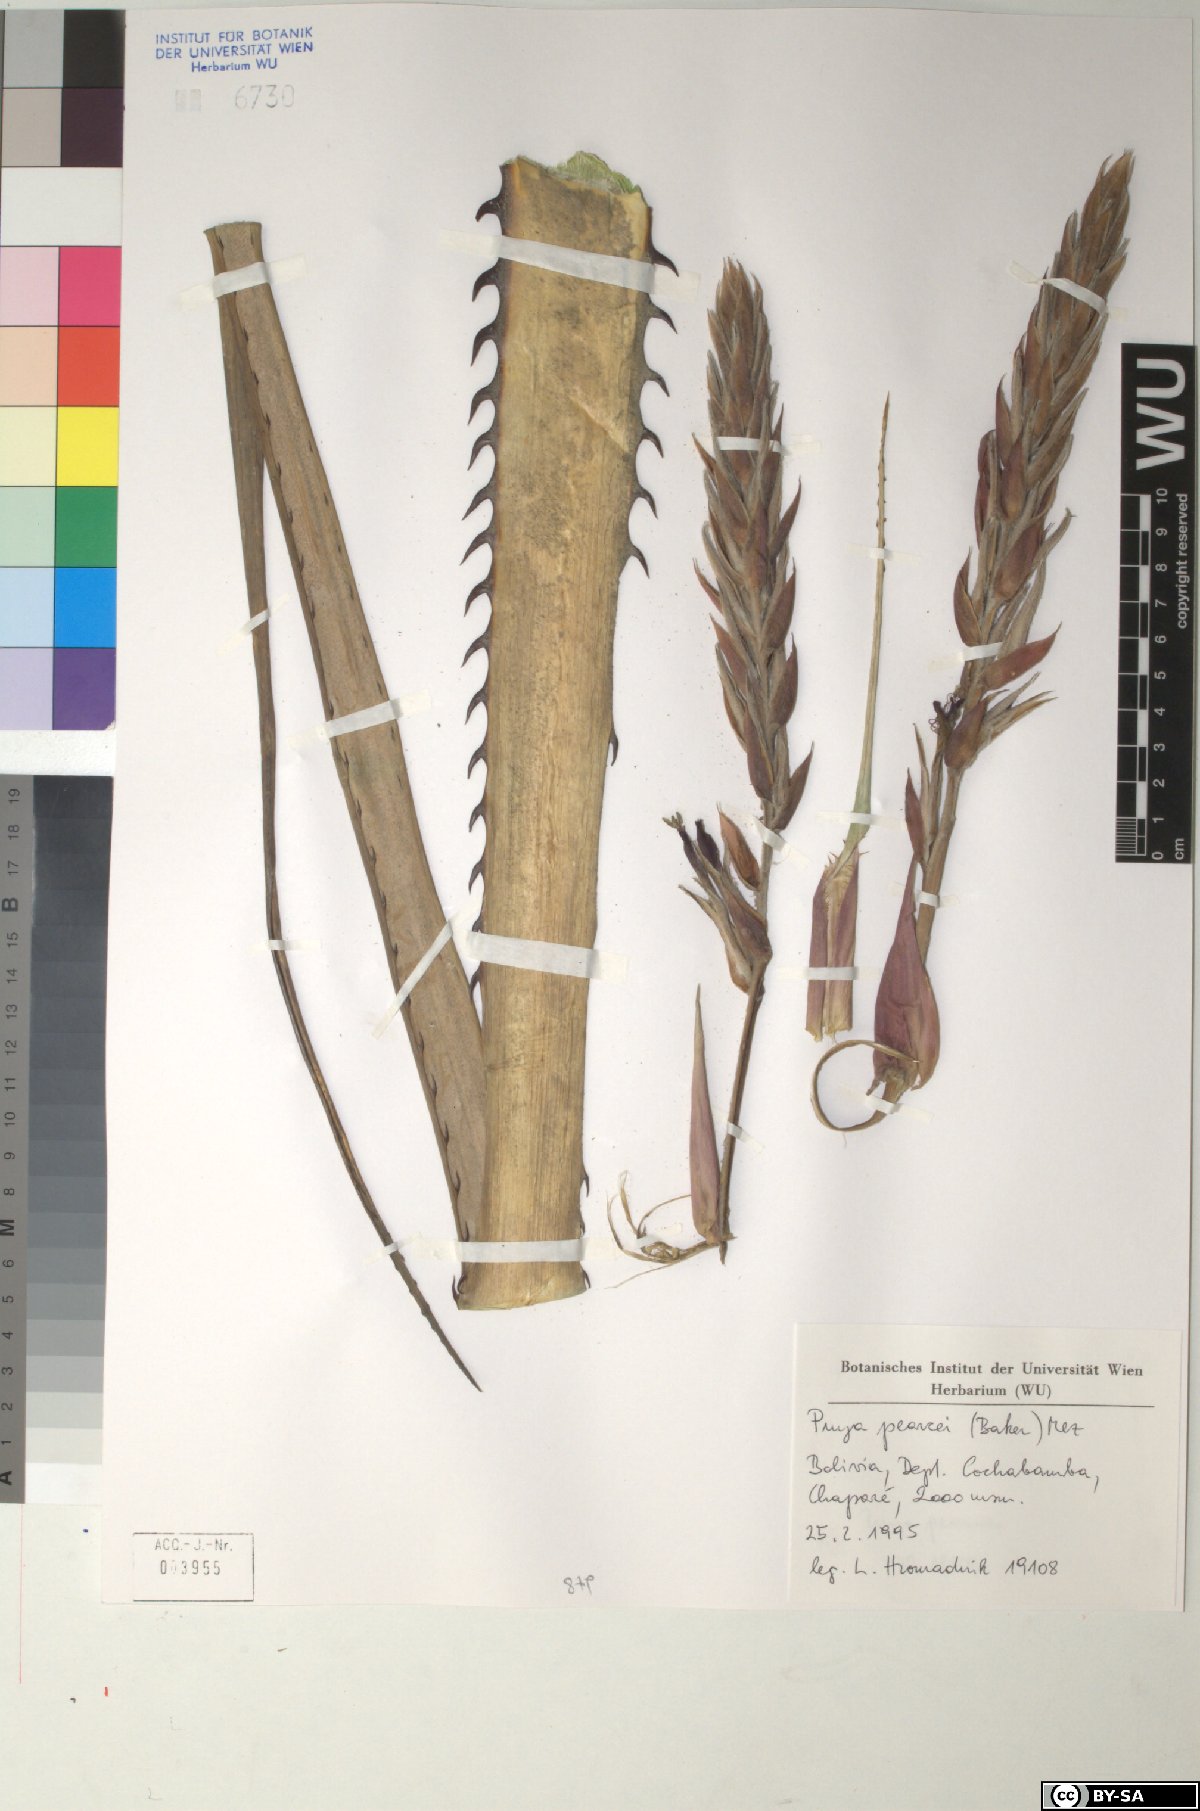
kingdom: Plantae
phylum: Tracheophyta
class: Liliopsida
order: Poales
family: Bromeliaceae
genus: Puya
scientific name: Puya pearcei
